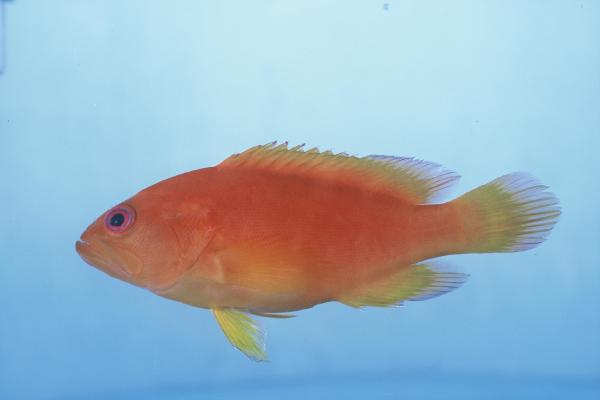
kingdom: Animalia
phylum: Chordata
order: Perciformes
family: Serranidae
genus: Cephalopholis
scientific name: Cephalopholis miniata
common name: Coral hind
